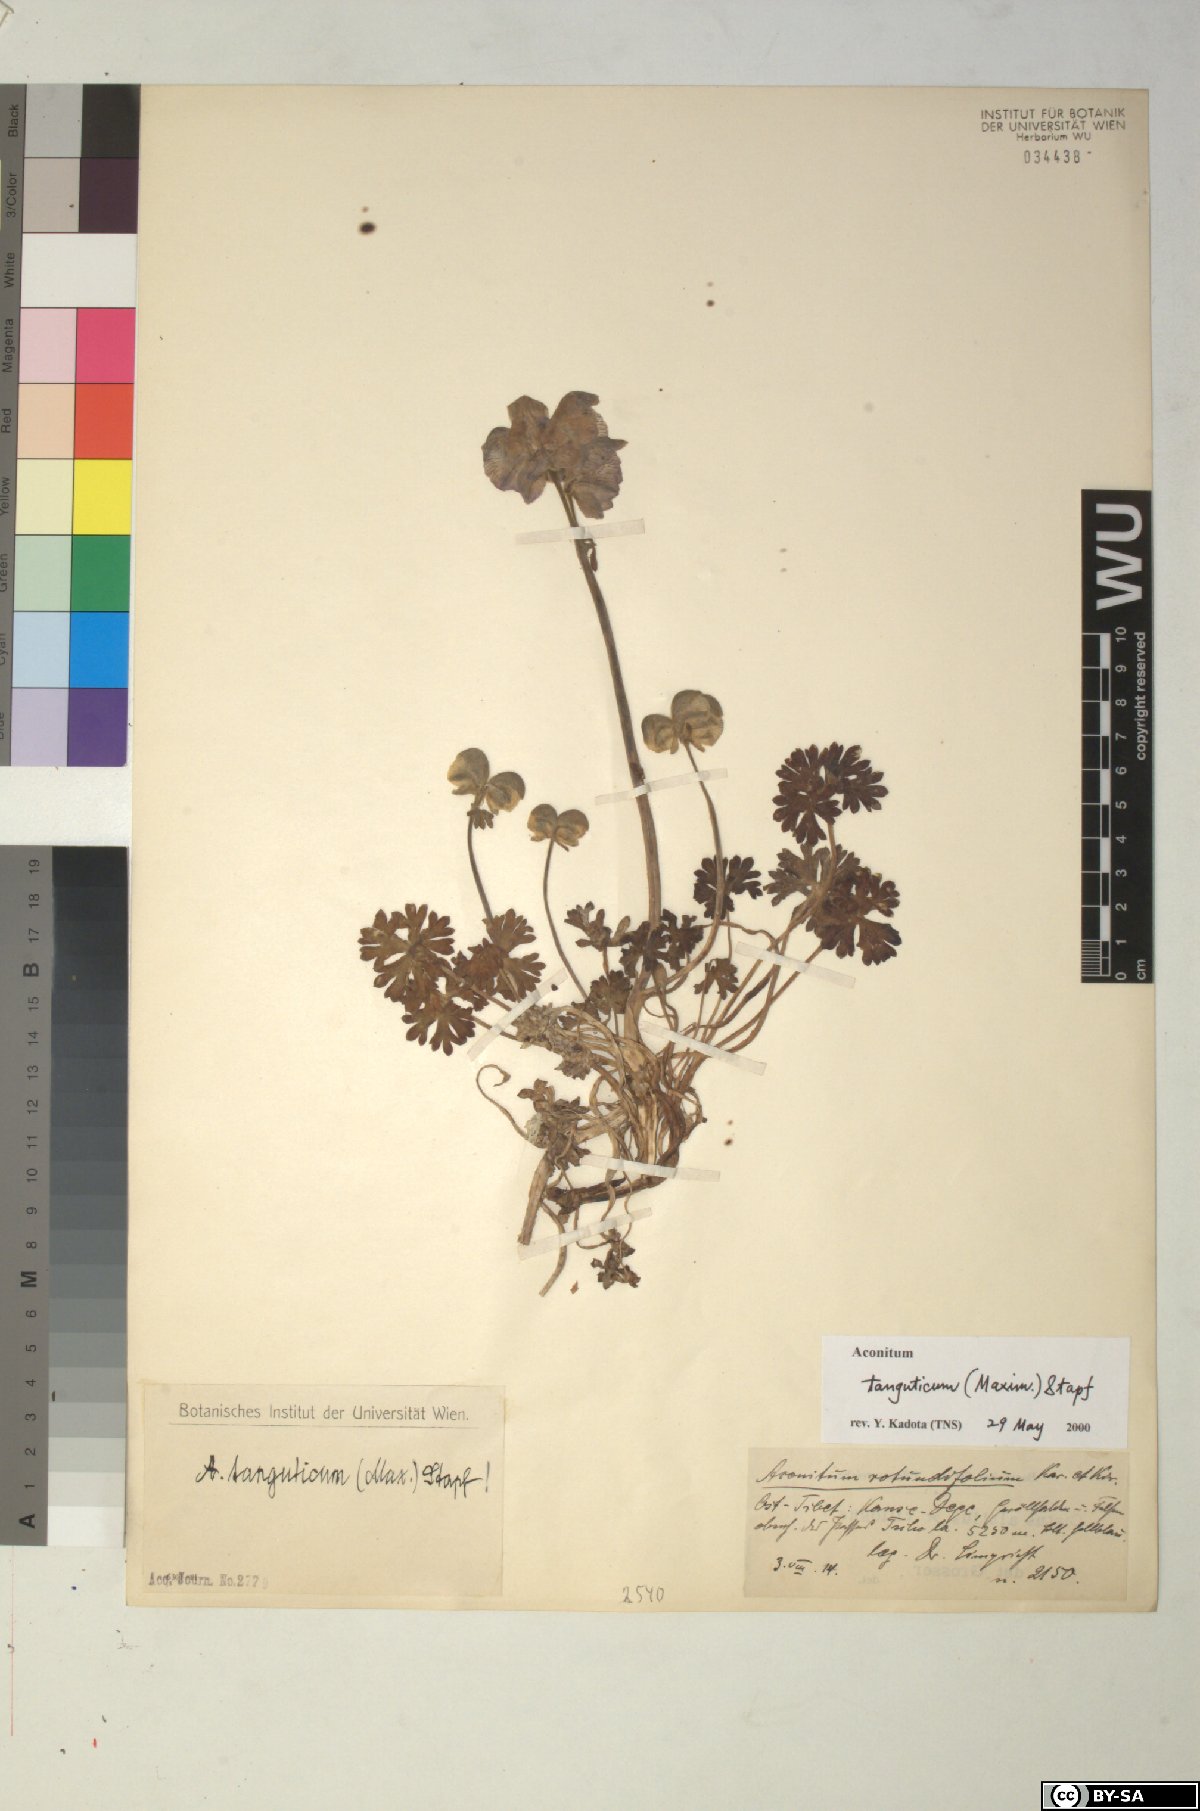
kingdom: Plantae
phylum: Tracheophyta
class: Magnoliopsida
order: Ranunculales
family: Ranunculaceae
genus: Aconitum
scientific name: Aconitum tanguticum
